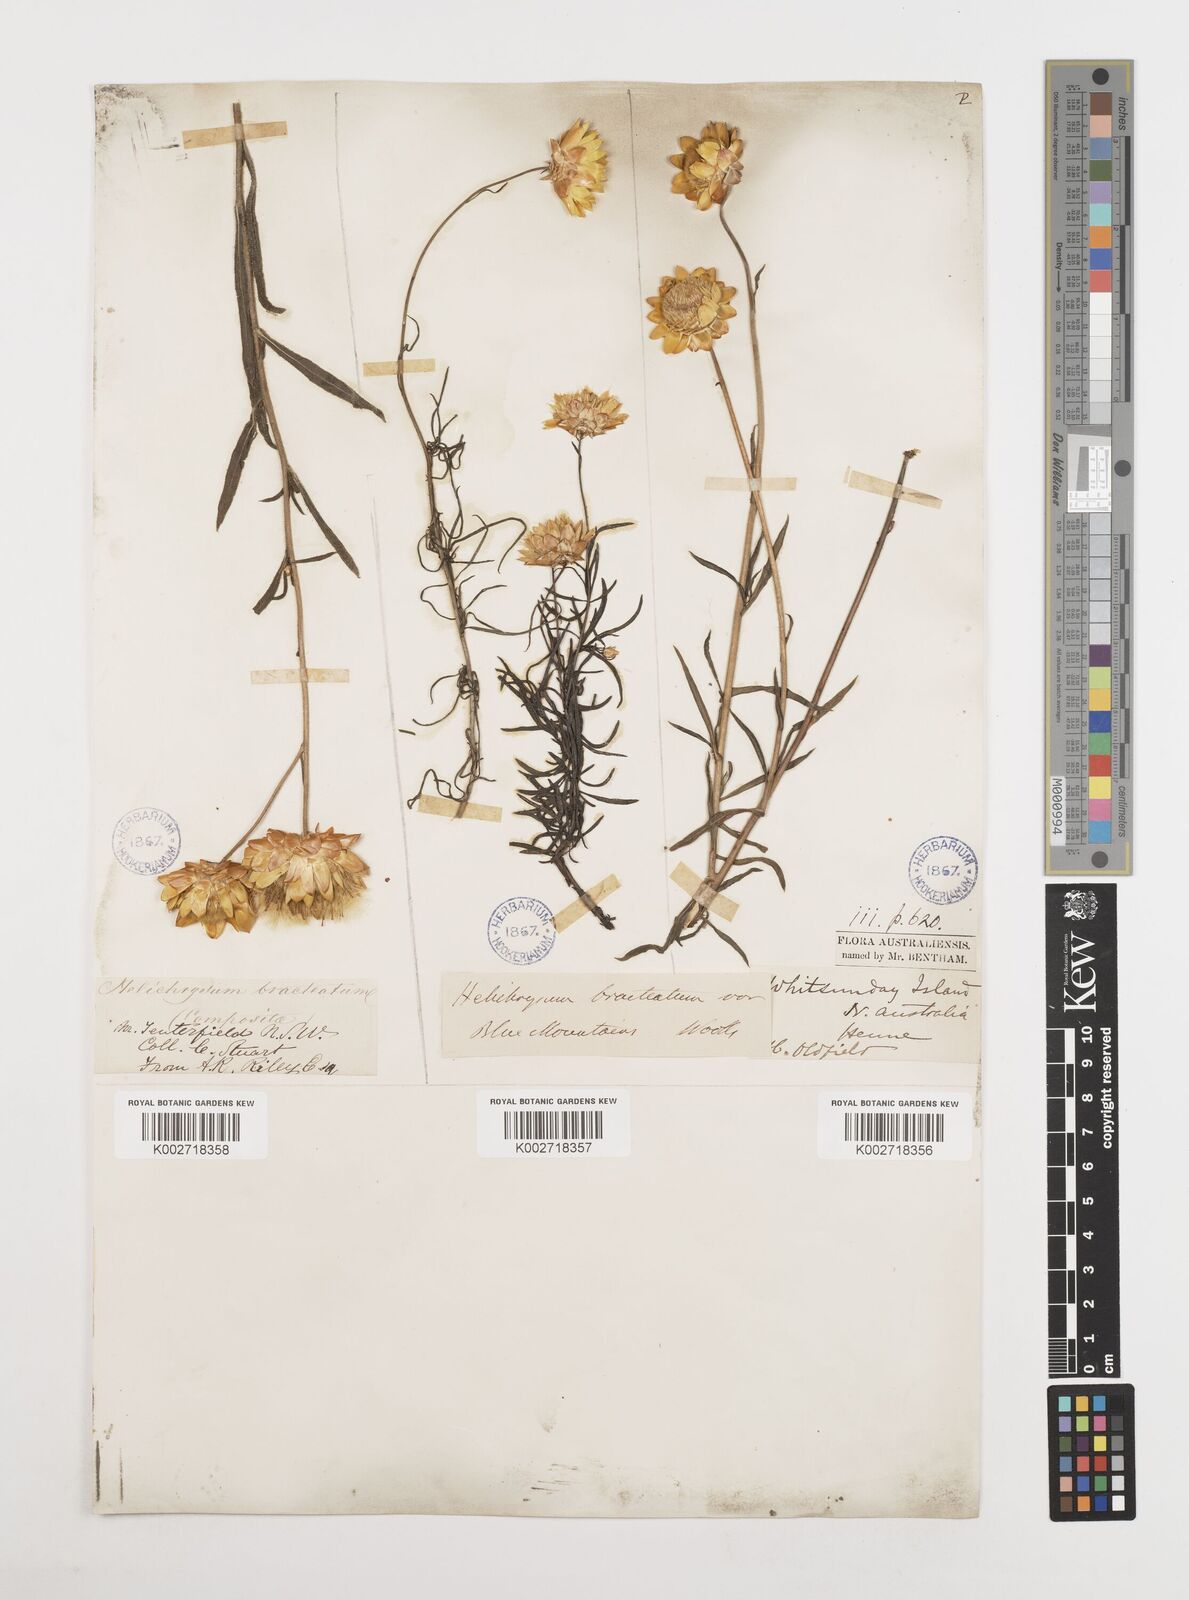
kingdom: Plantae
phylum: Tracheophyta
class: Magnoliopsida
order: Asterales
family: Asteraceae
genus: Xerochrysum
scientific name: Xerochrysum bracteatum
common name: Bracted strawflower
